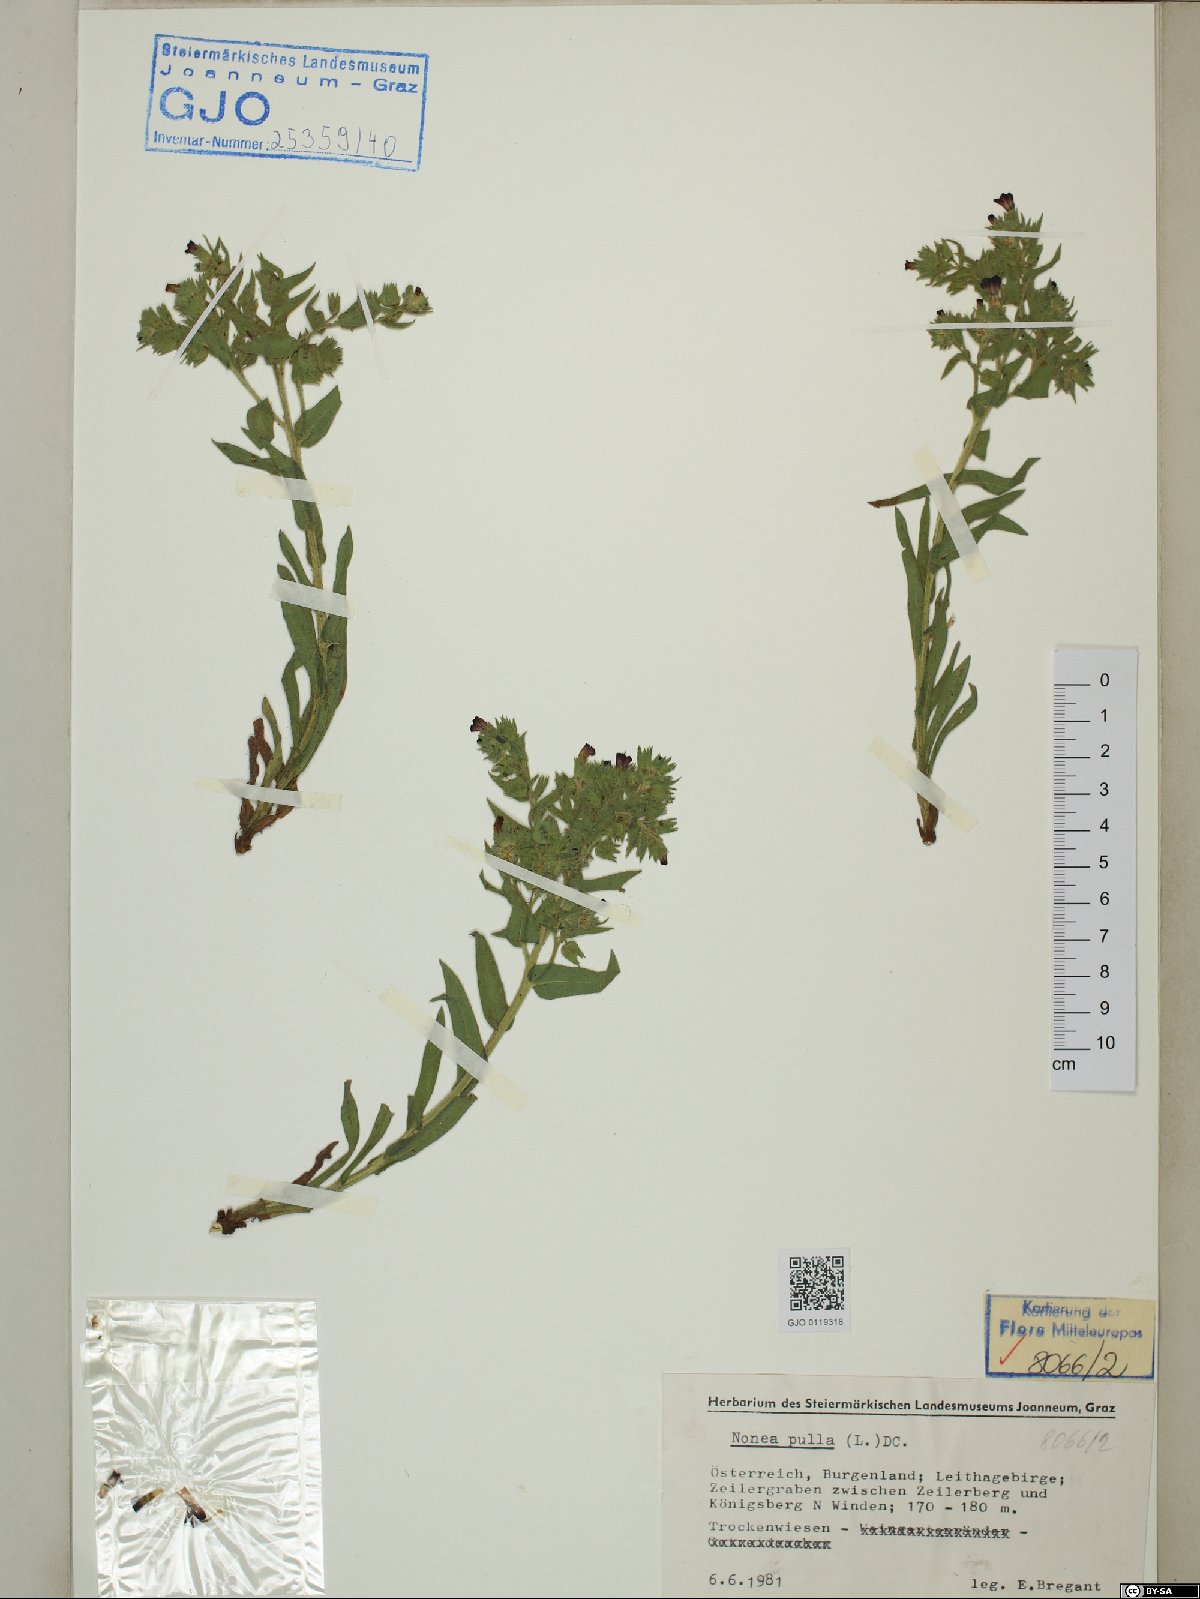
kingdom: Plantae
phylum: Tracheophyta
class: Magnoliopsida
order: Boraginales
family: Boraginaceae
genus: Nonea
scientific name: Nonea pulla
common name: Brown nonea
